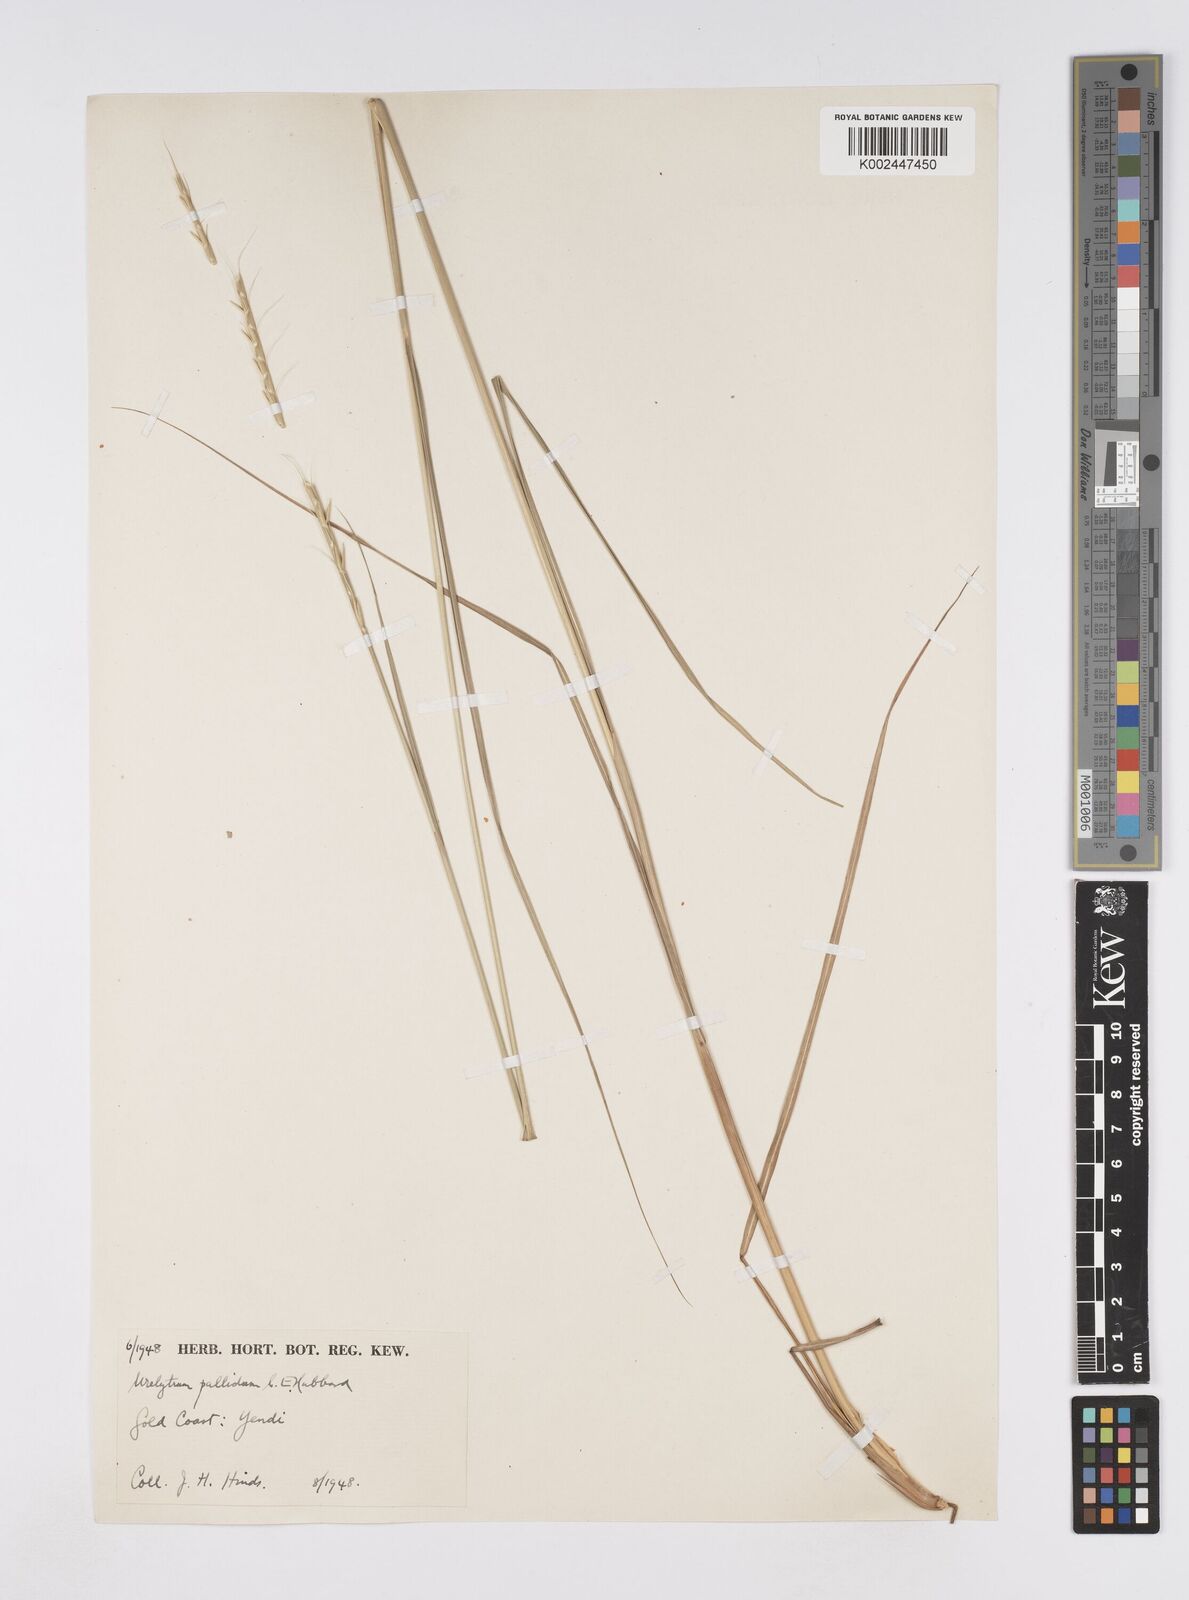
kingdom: Plantae
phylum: Tracheophyta
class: Liliopsida
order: Poales
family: Poaceae
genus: Urelytrum
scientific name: Urelytrum agropyroides
